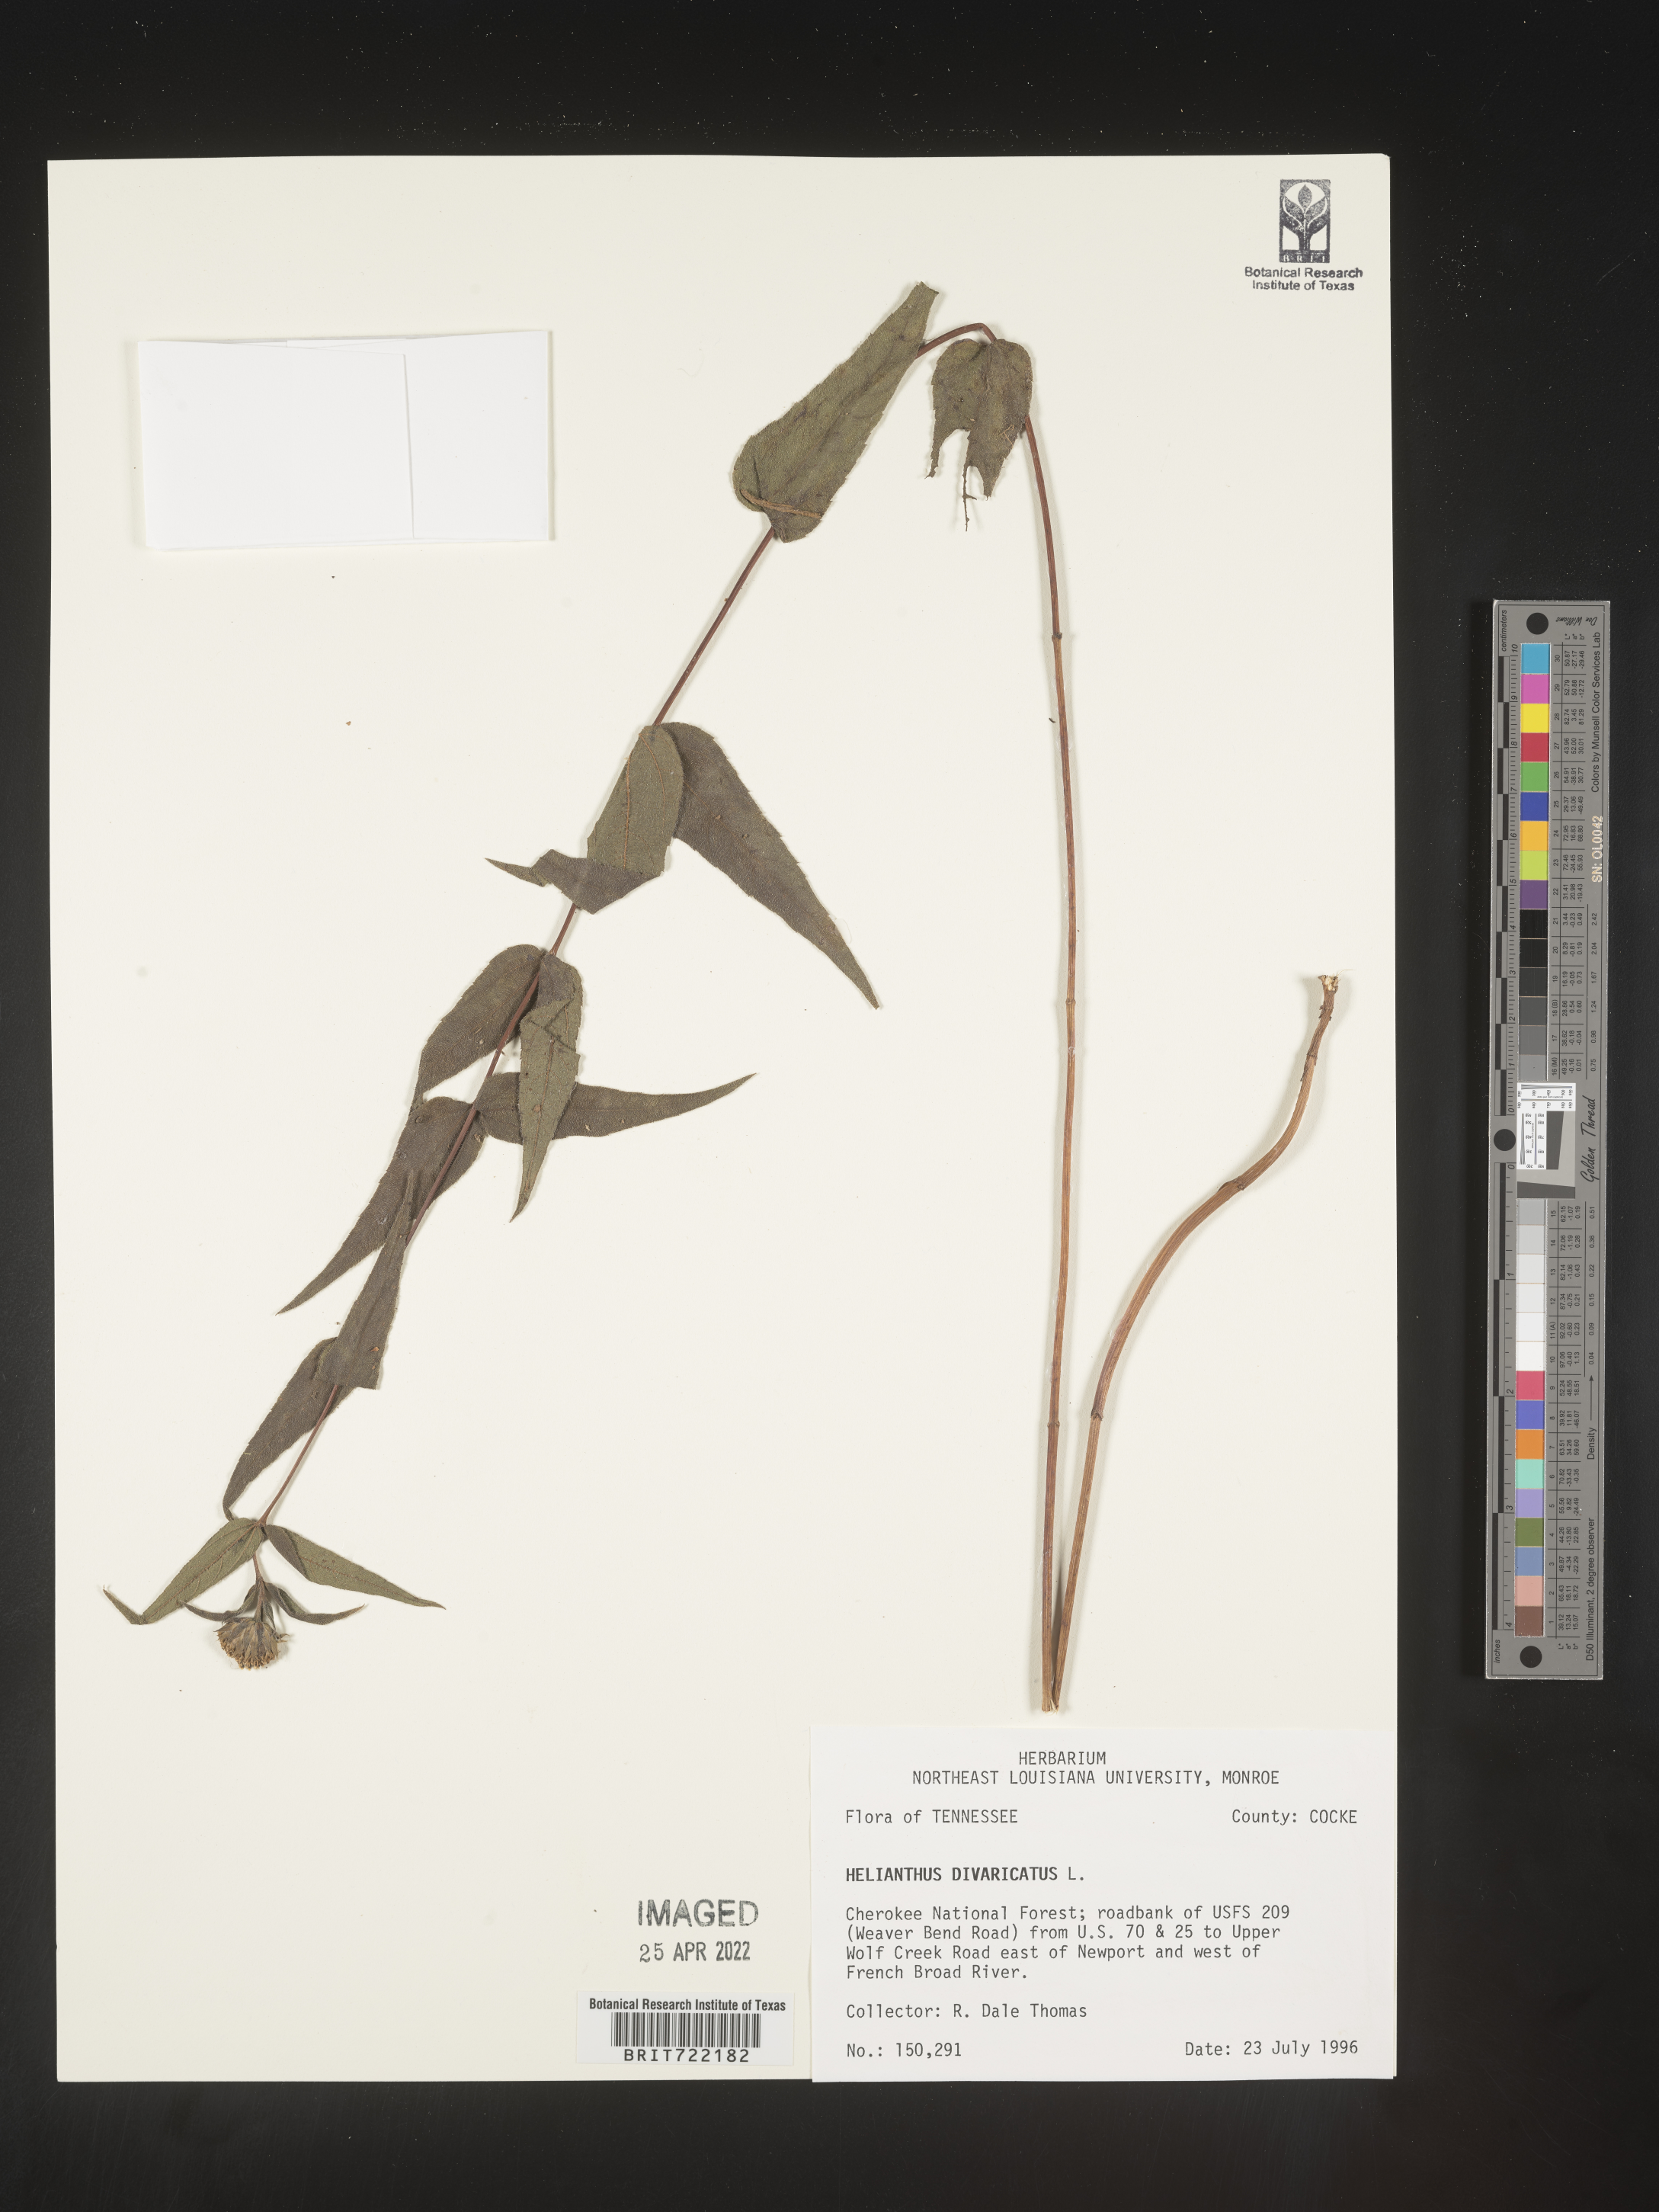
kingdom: Plantae
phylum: Tracheophyta
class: Magnoliopsida
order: Asterales
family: Asteraceae
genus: Helianthus
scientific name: Helianthus divaricatus
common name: Divergent sunflower
